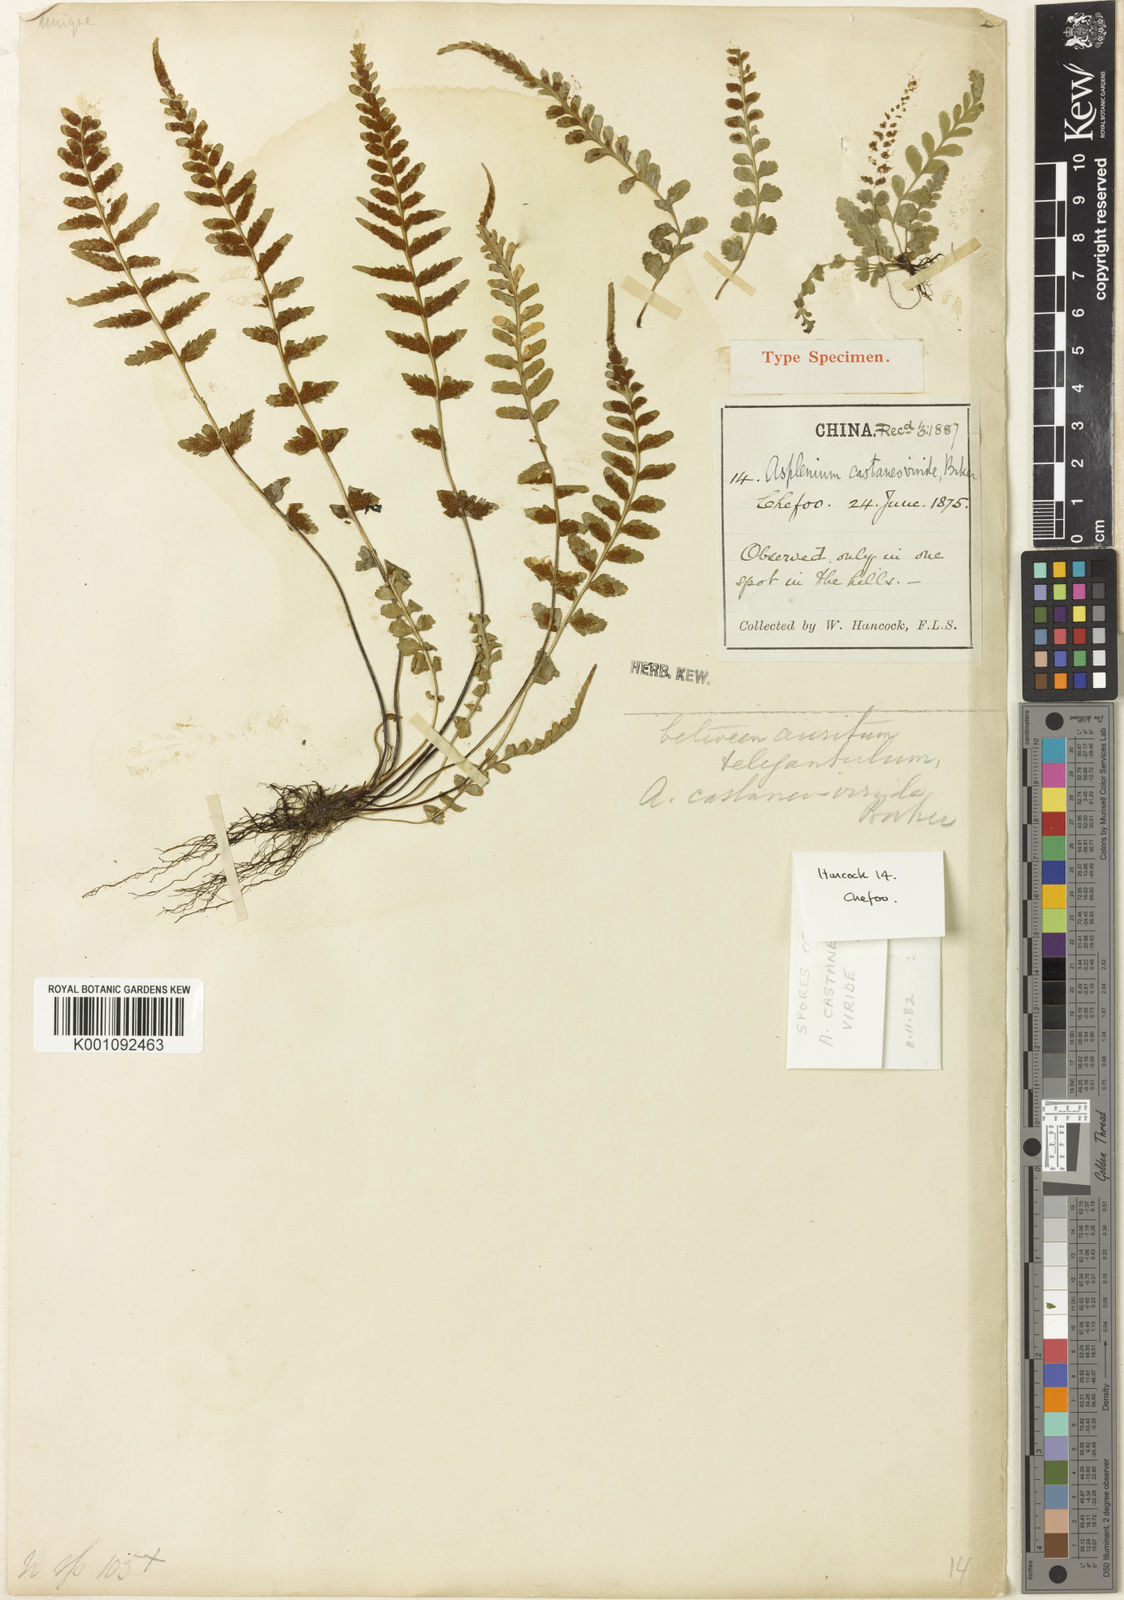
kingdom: Plantae
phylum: Tracheophyta
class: Polypodiopsida
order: Polypodiales
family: Aspleniaceae
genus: Asplenium
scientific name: Asplenium castaneoviride
